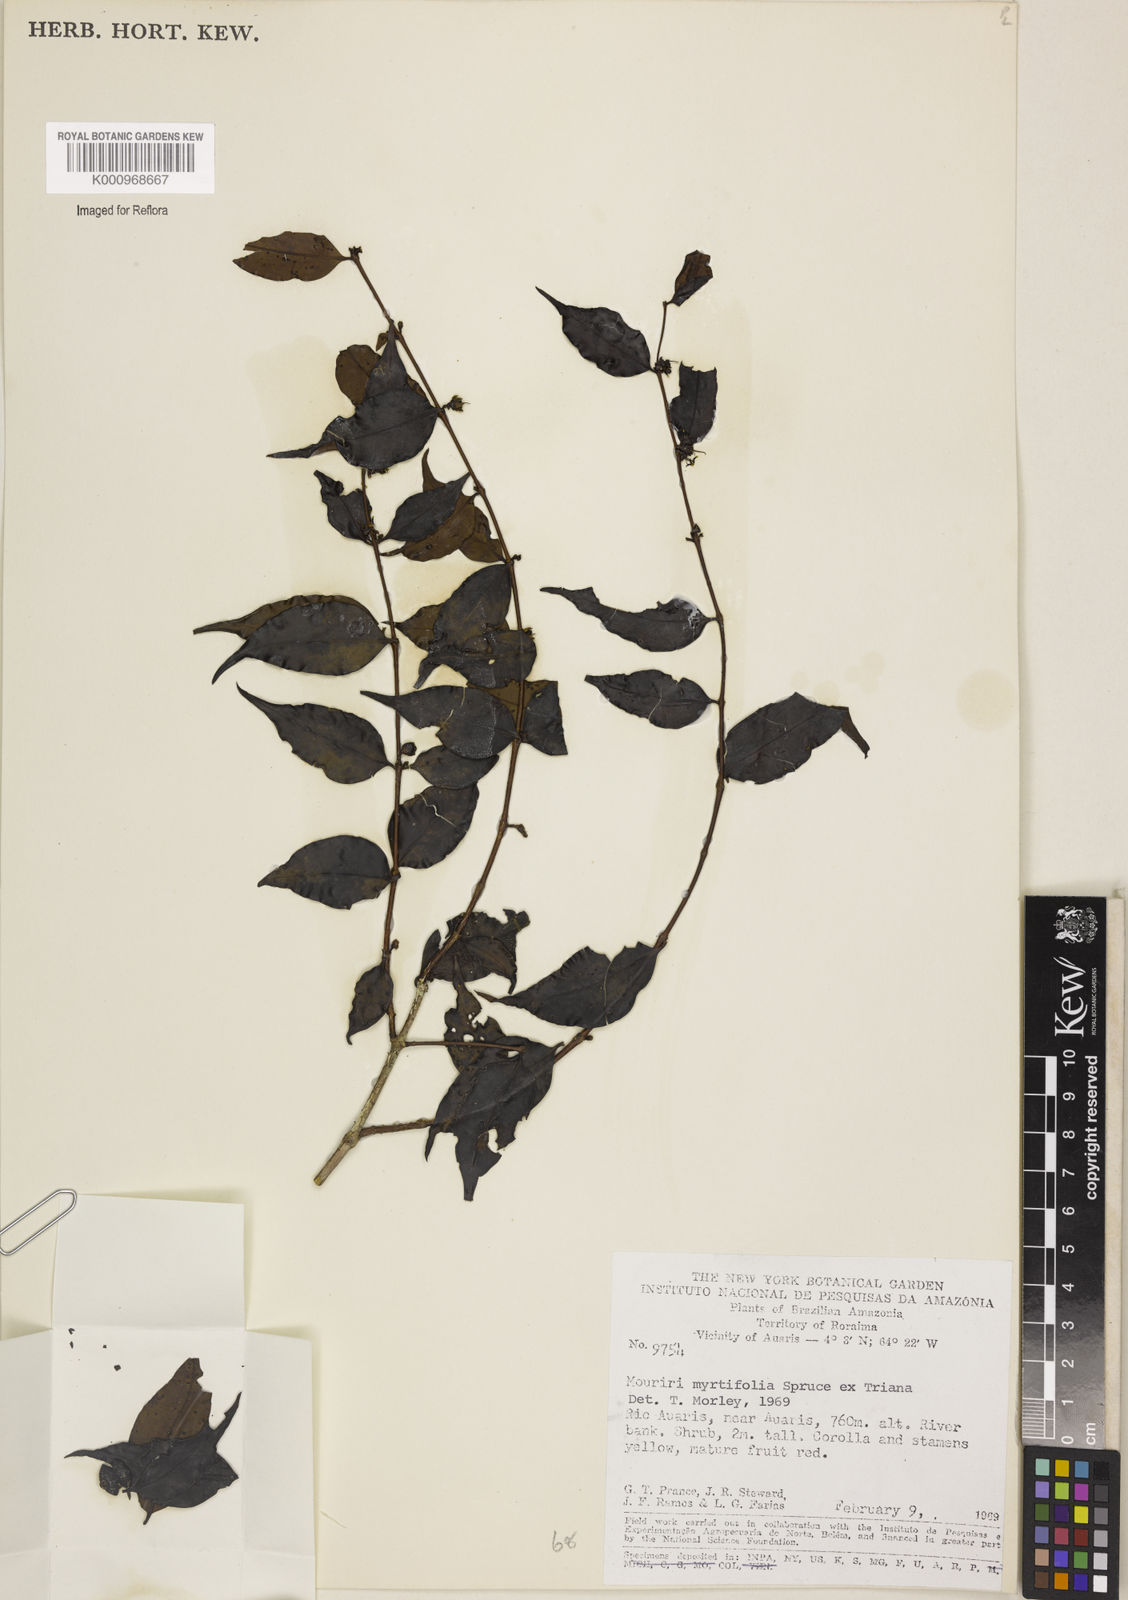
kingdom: Plantae
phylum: Tracheophyta
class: Magnoliopsida
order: Myrtales
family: Melastomataceae
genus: Mouriri
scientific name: Mouriri myrtifolia
